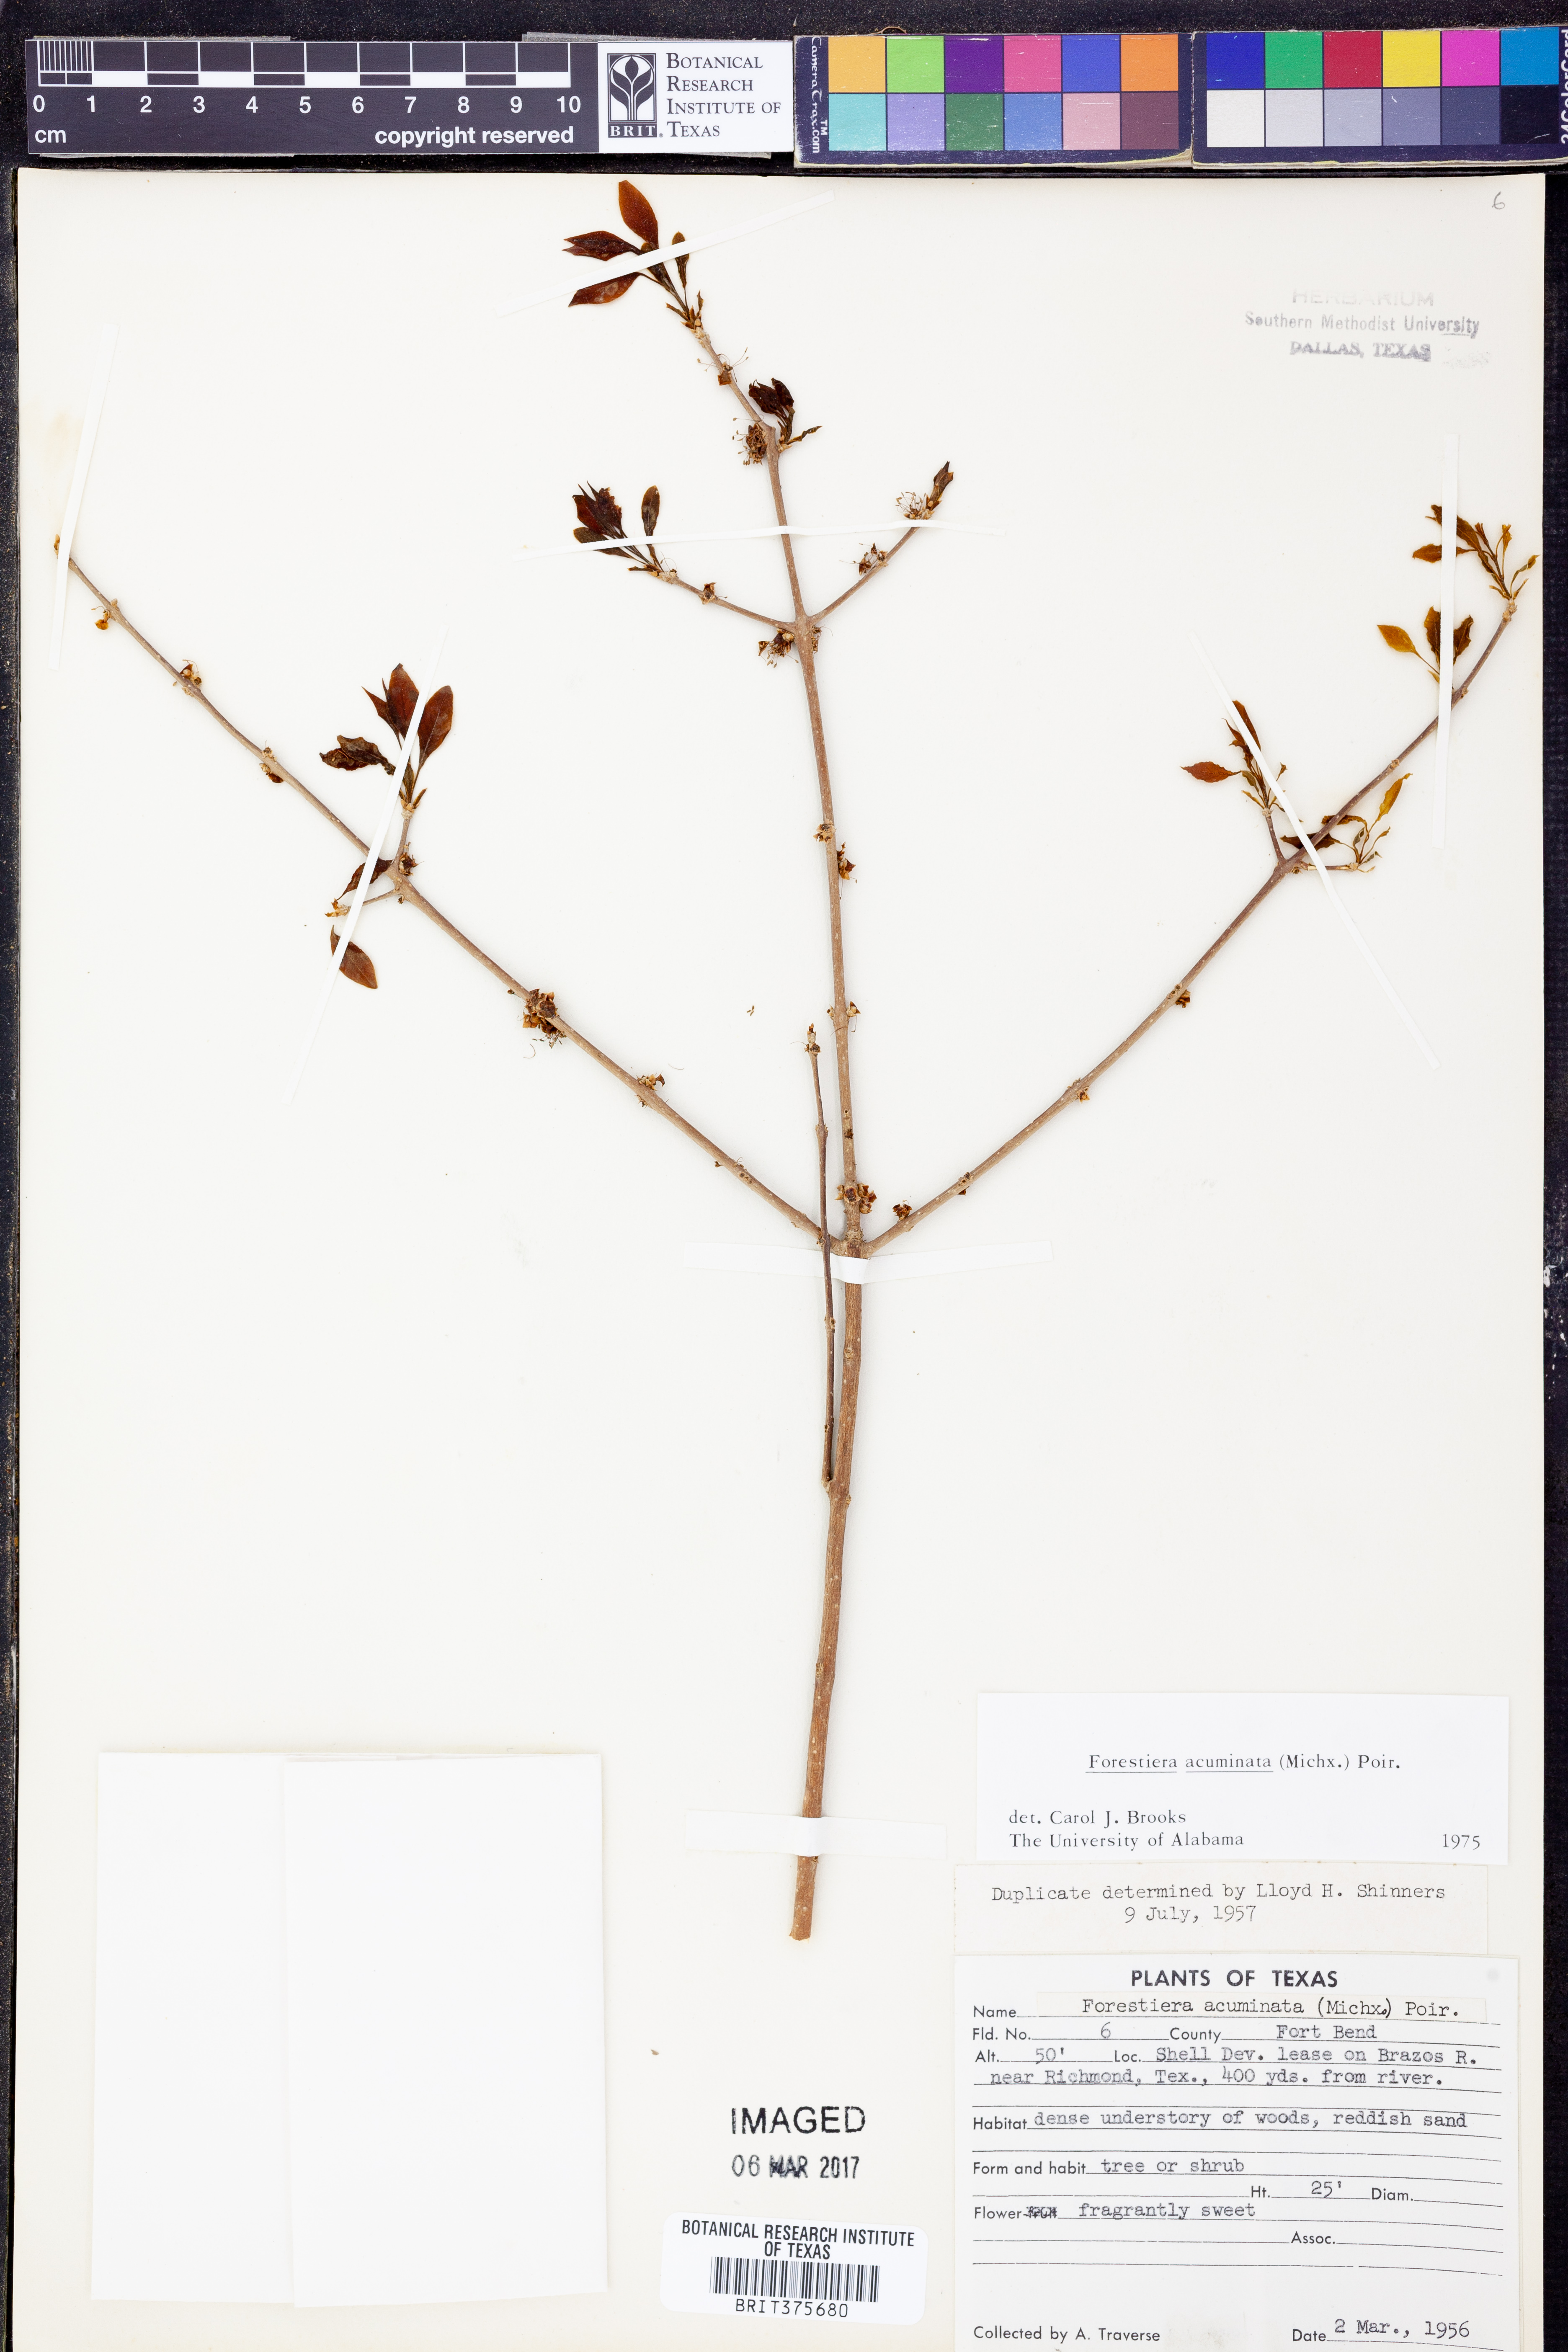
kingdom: Plantae
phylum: Tracheophyta
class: Magnoliopsida
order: Lamiales
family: Oleaceae
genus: Forestiera
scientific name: Forestiera acuminata
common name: Swamp-privet
